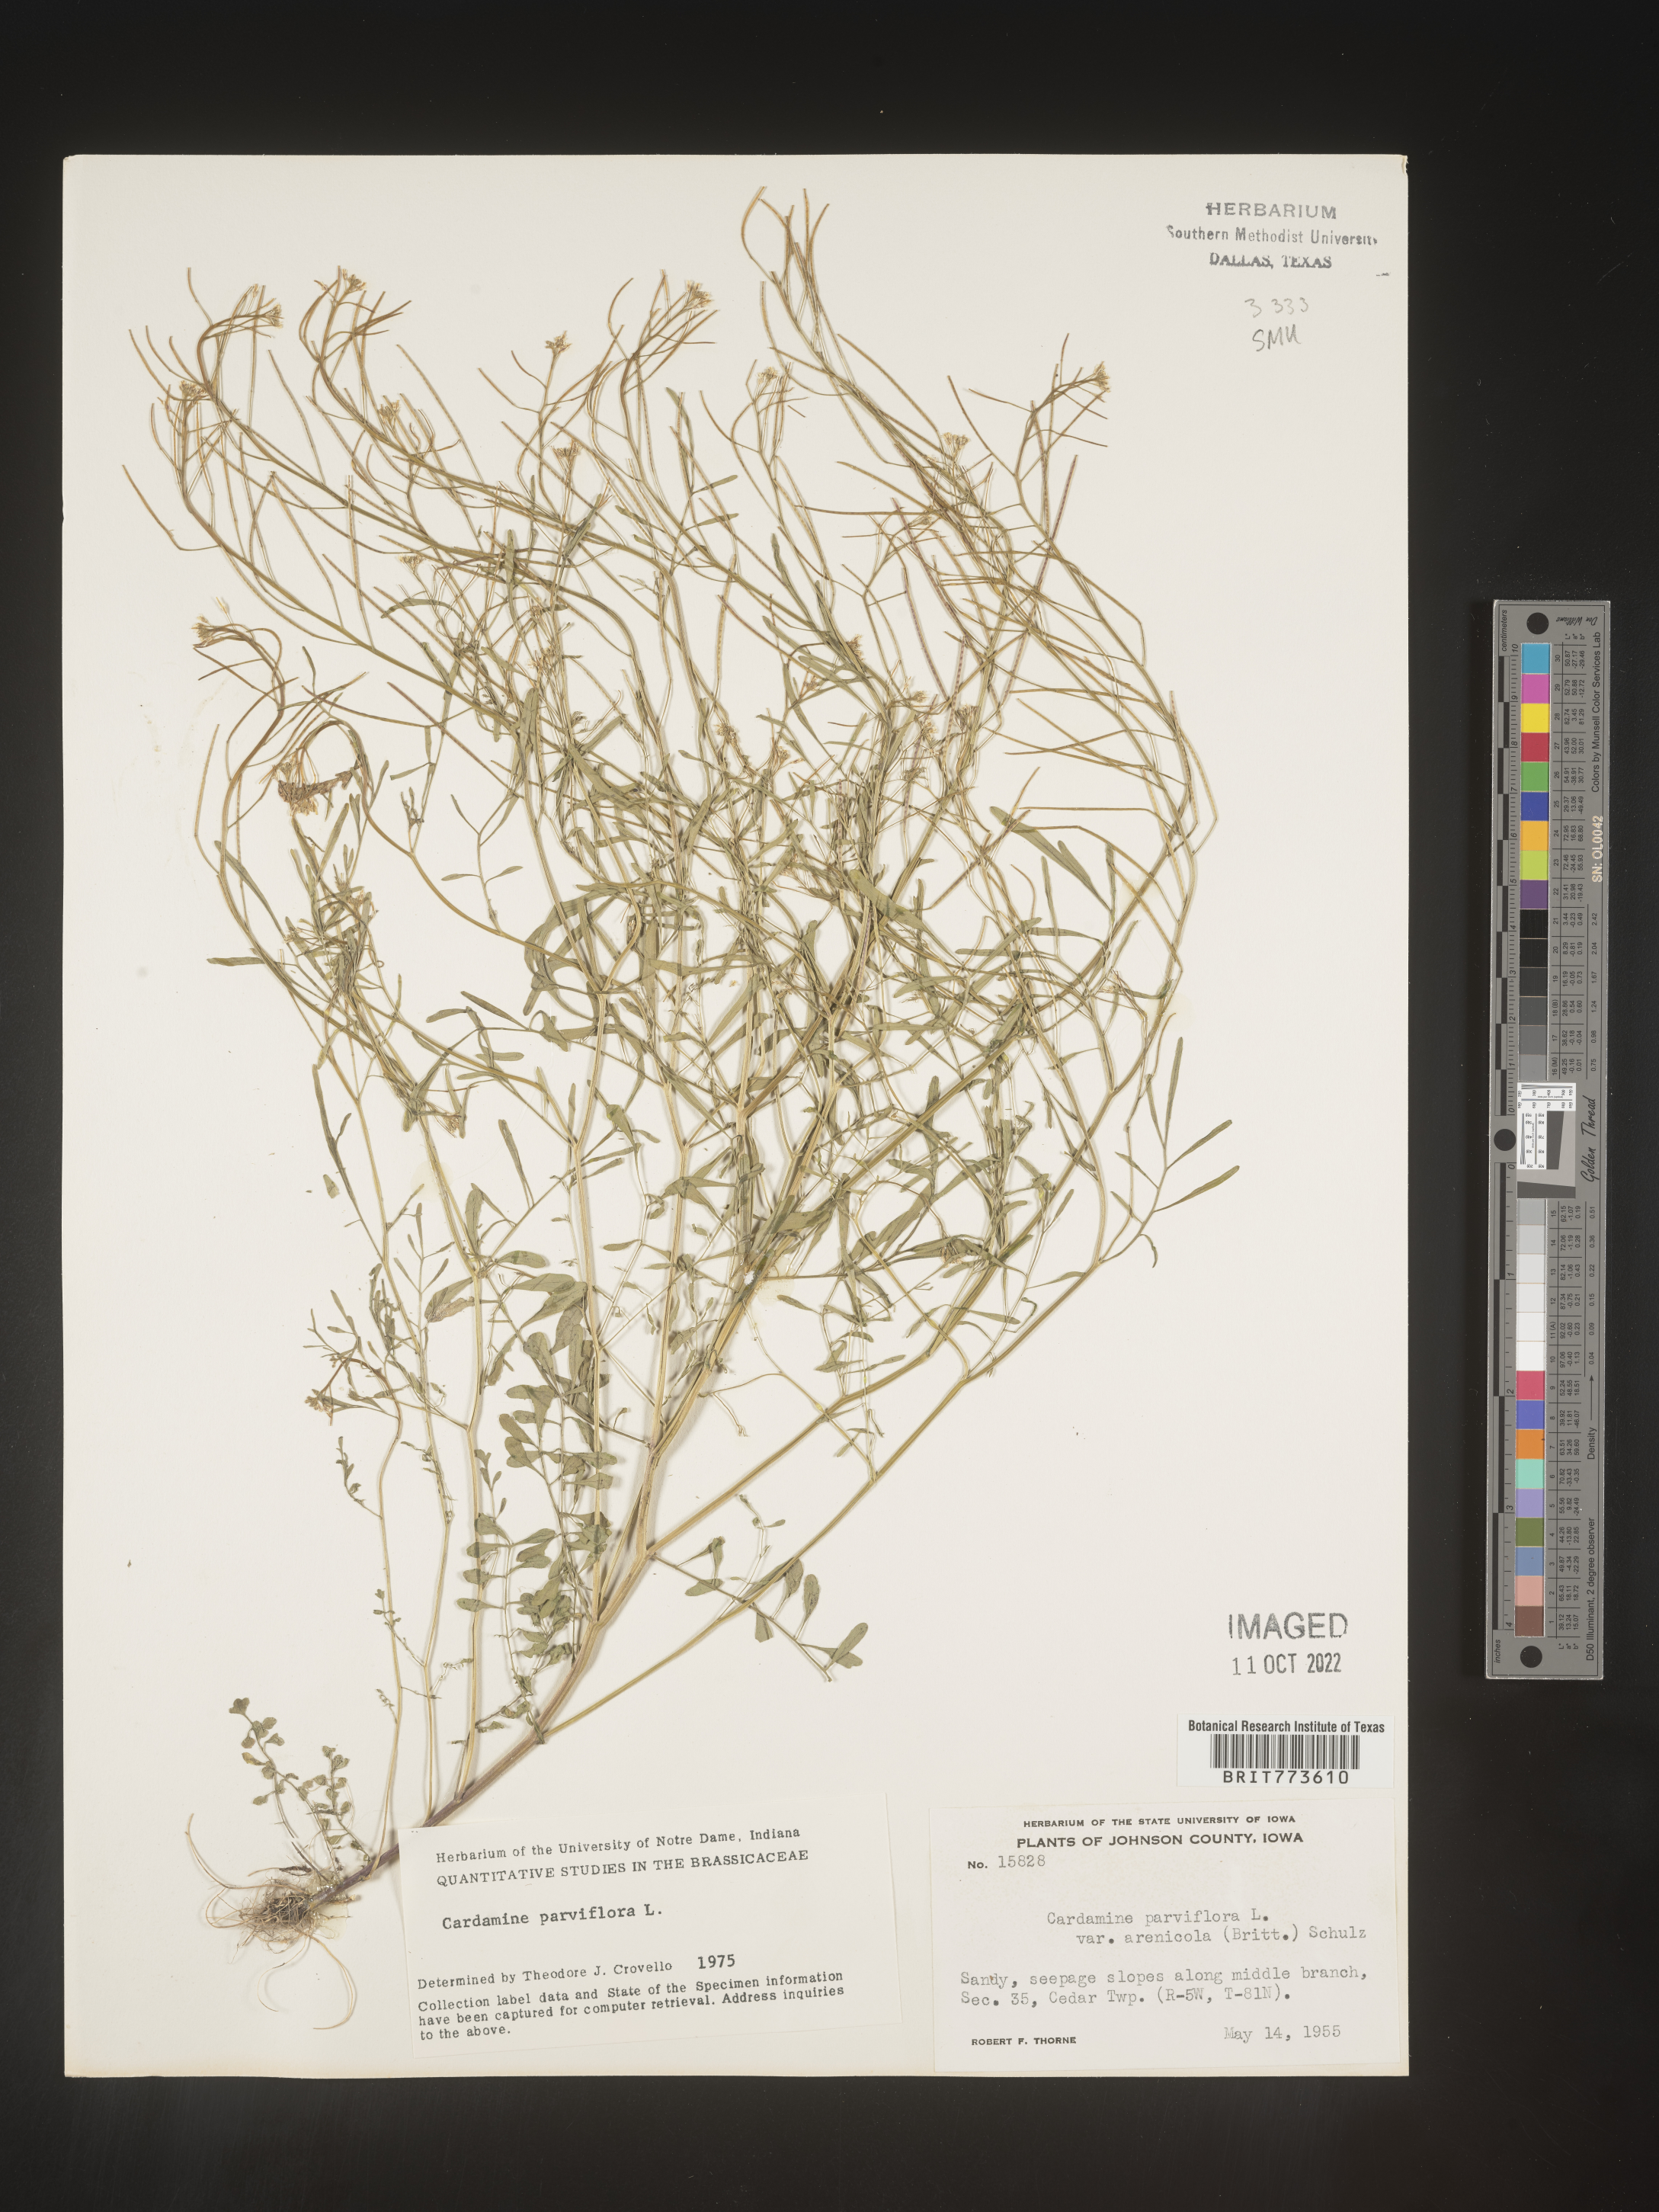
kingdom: Plantae
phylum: Tracheophyta
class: Magnoliopsida
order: Brassicales
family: Brassicaceae
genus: Cardamine
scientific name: Cardamine parviflora
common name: Sand bittercress
